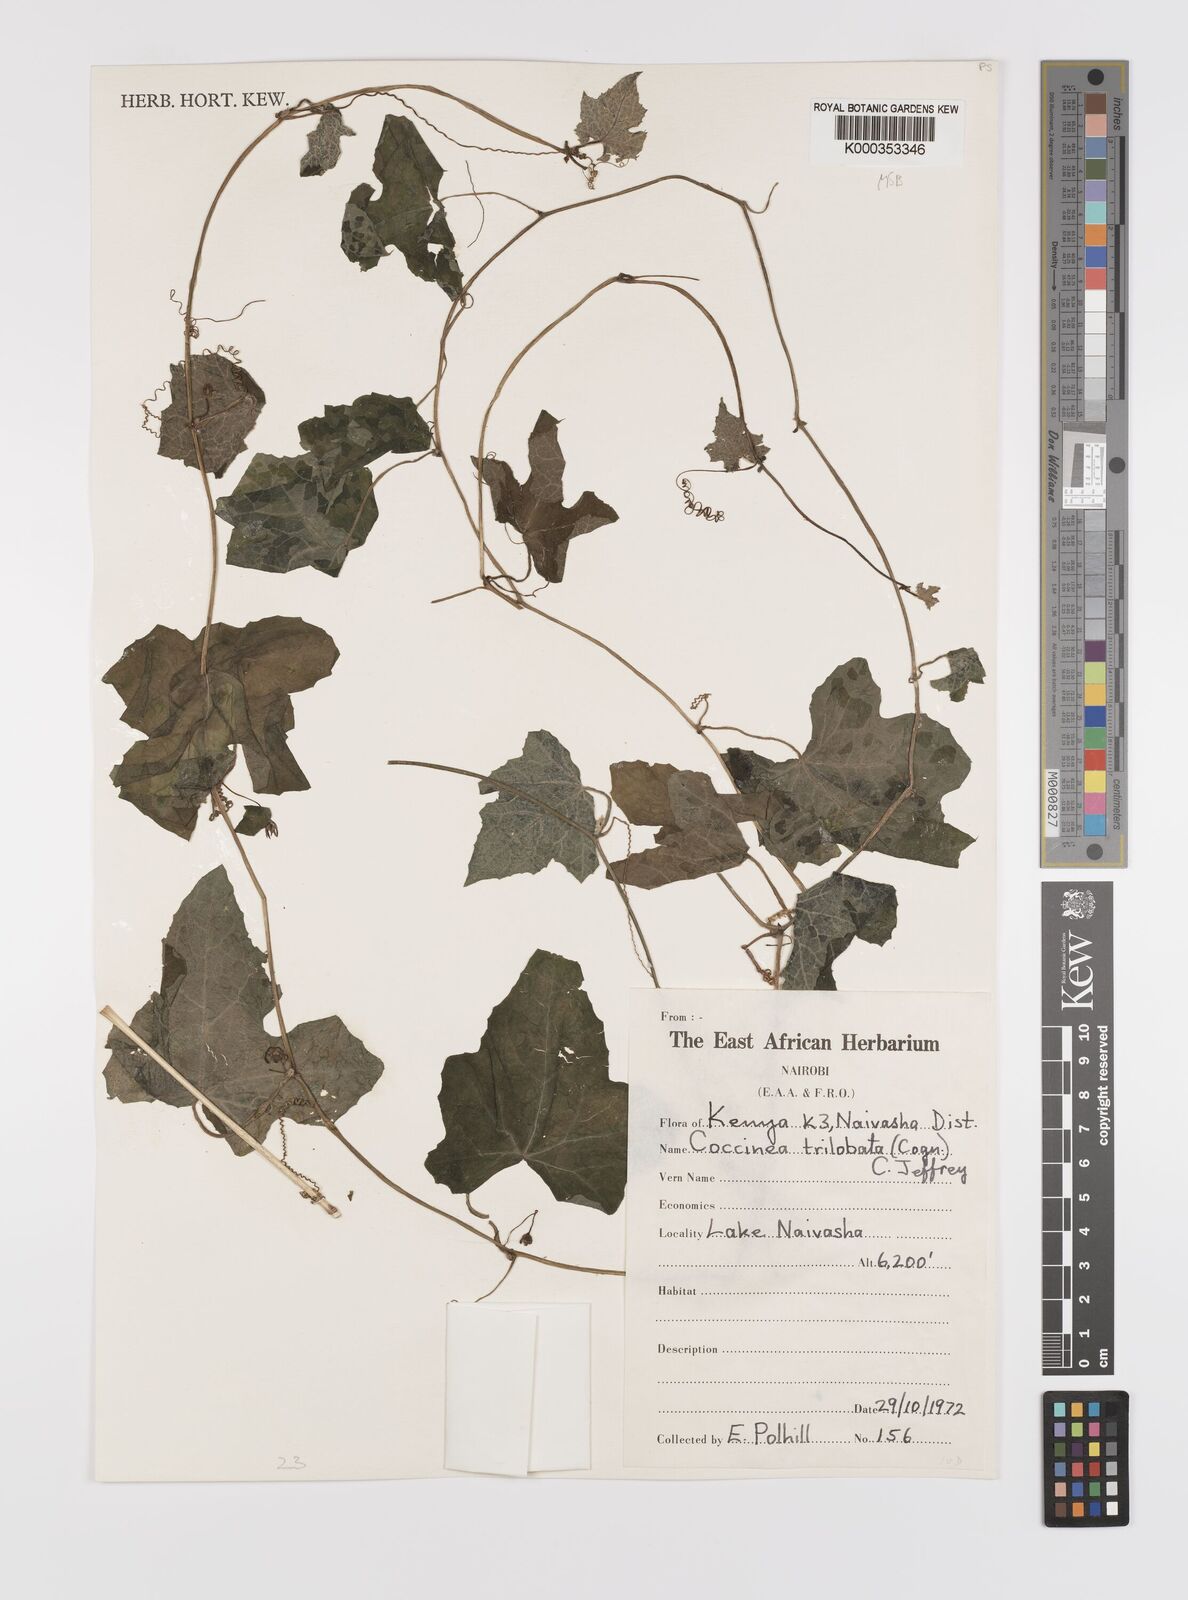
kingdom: Plantae
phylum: Tracheophyta
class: Magnoliopsida
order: Cucurbitales
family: Cucurbitaceae
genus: Coccinia
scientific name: Coccinia trilobata
